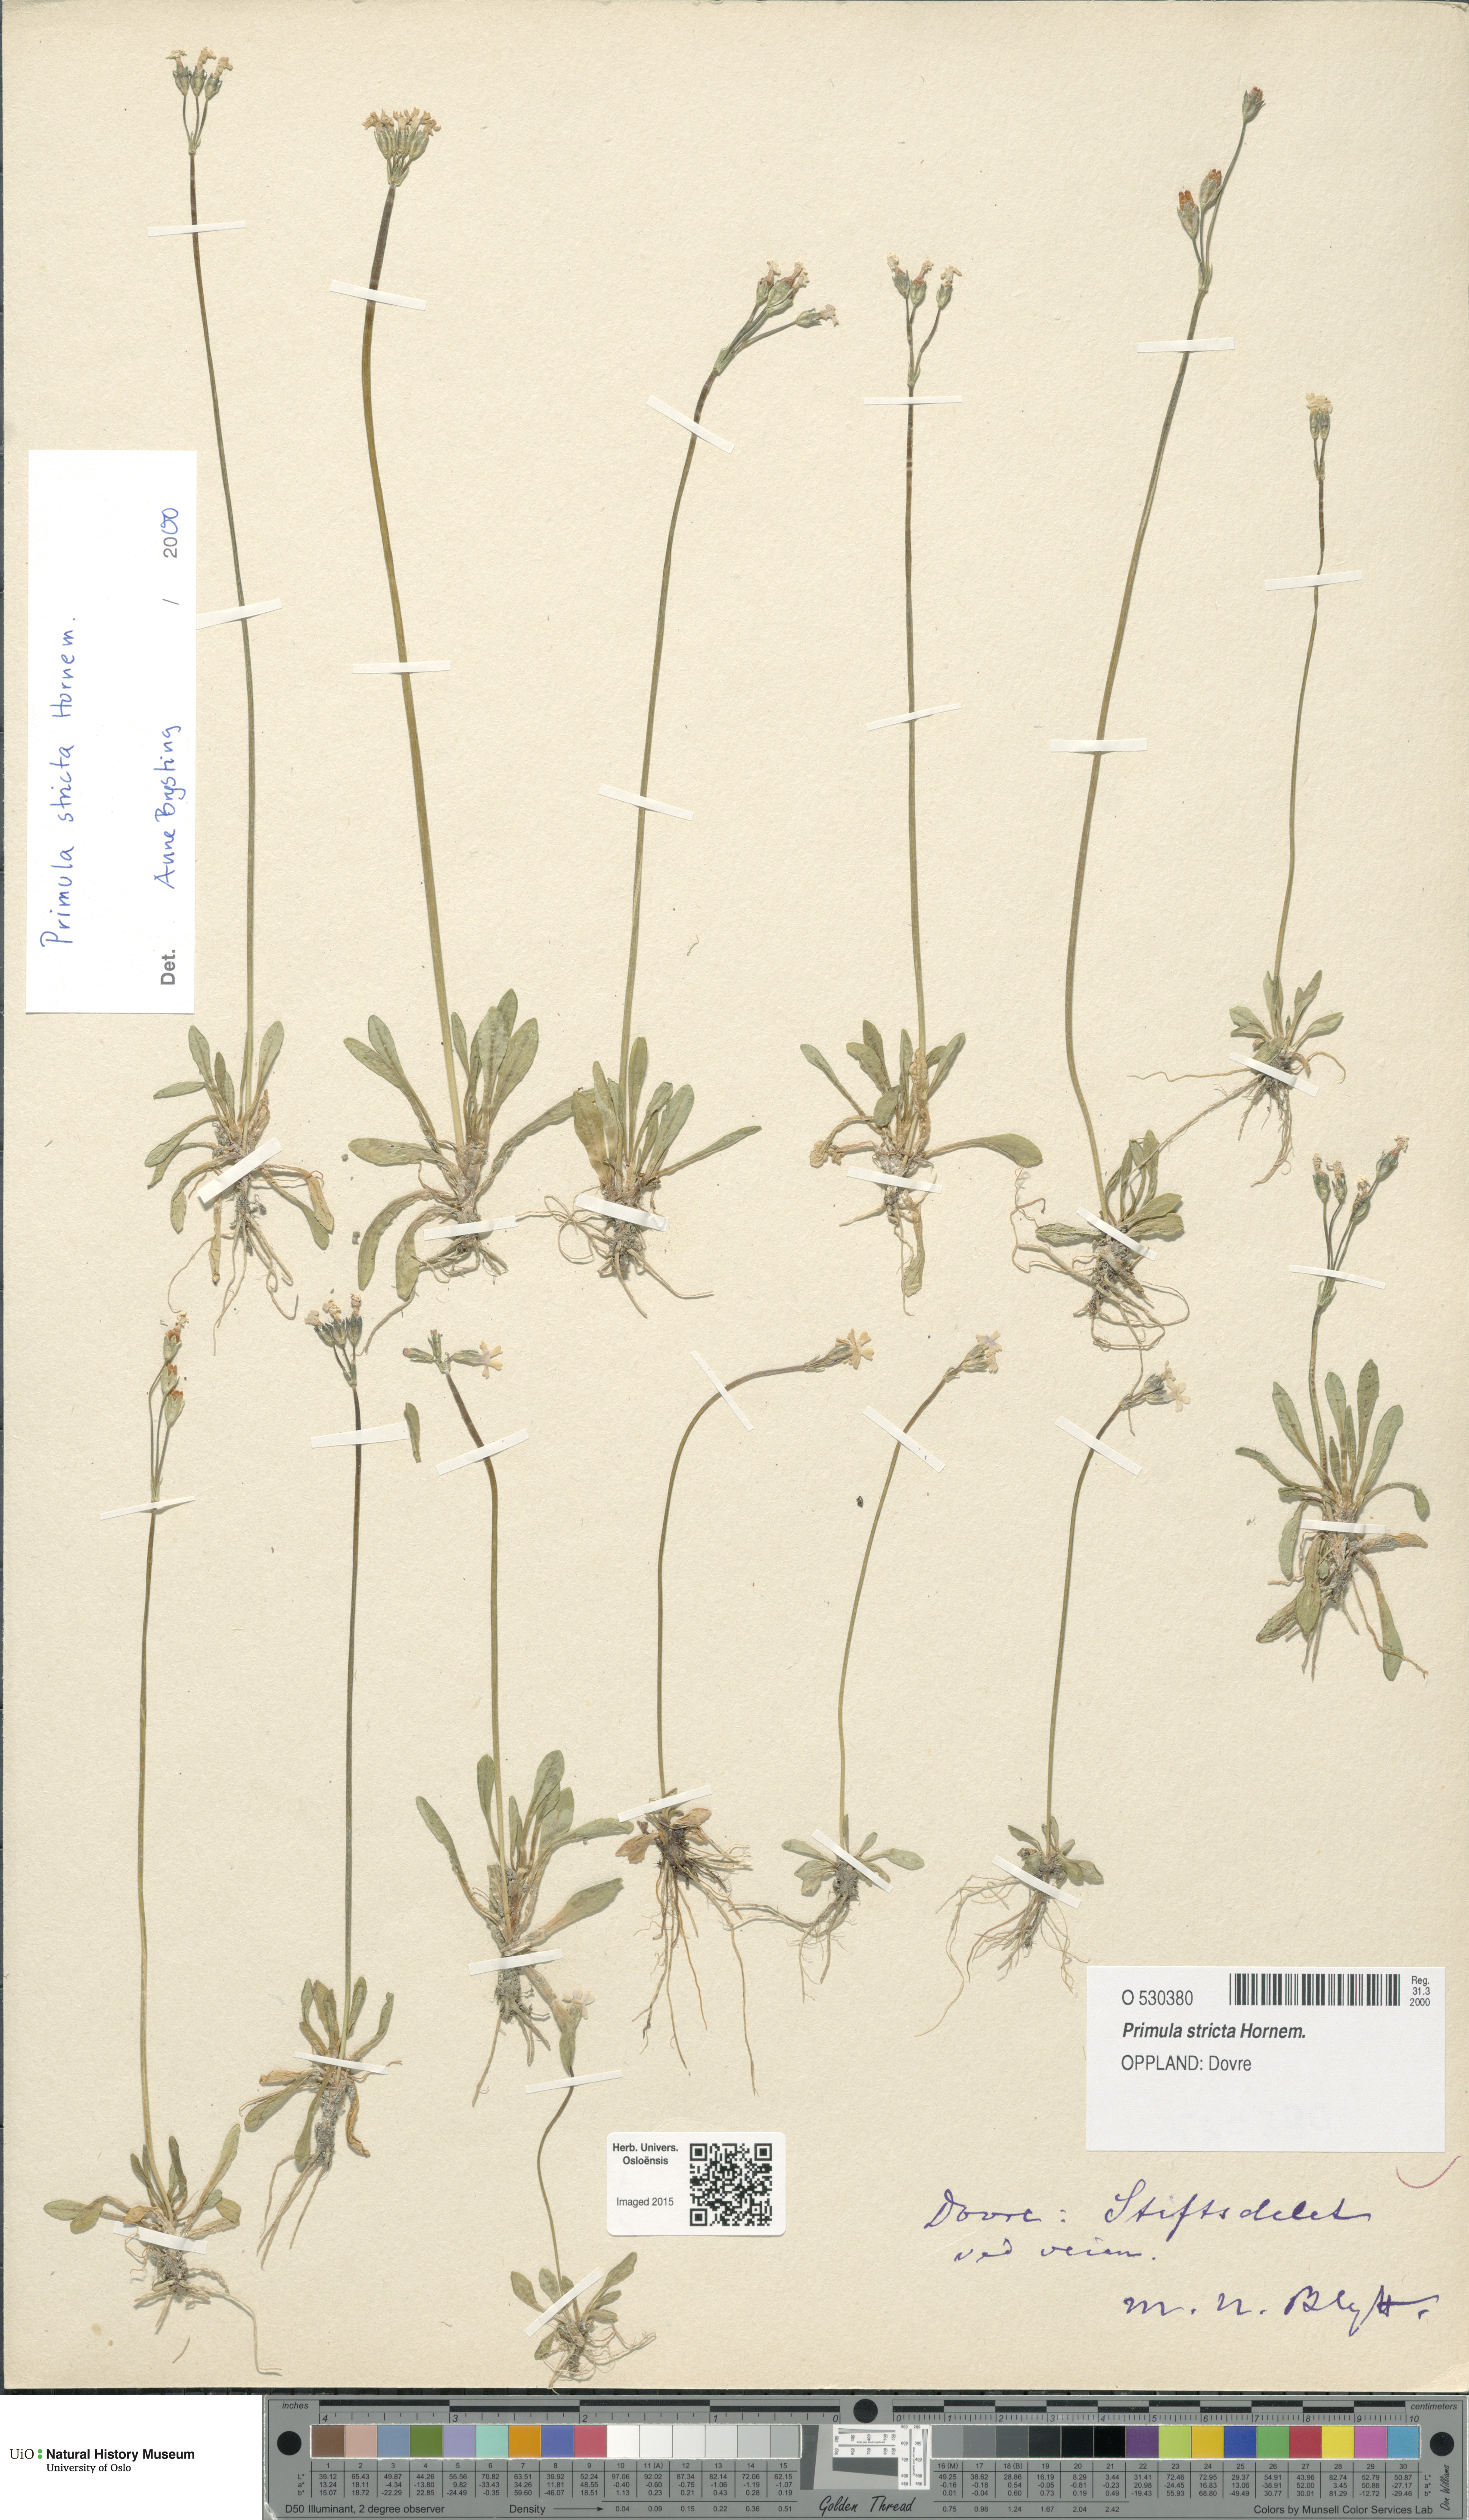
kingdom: Plantae
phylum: Tracheophyta
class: Magnoliopsida
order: Ericales
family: Primulaceae
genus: Primula
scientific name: Primula stricta
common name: Coastal primrose
